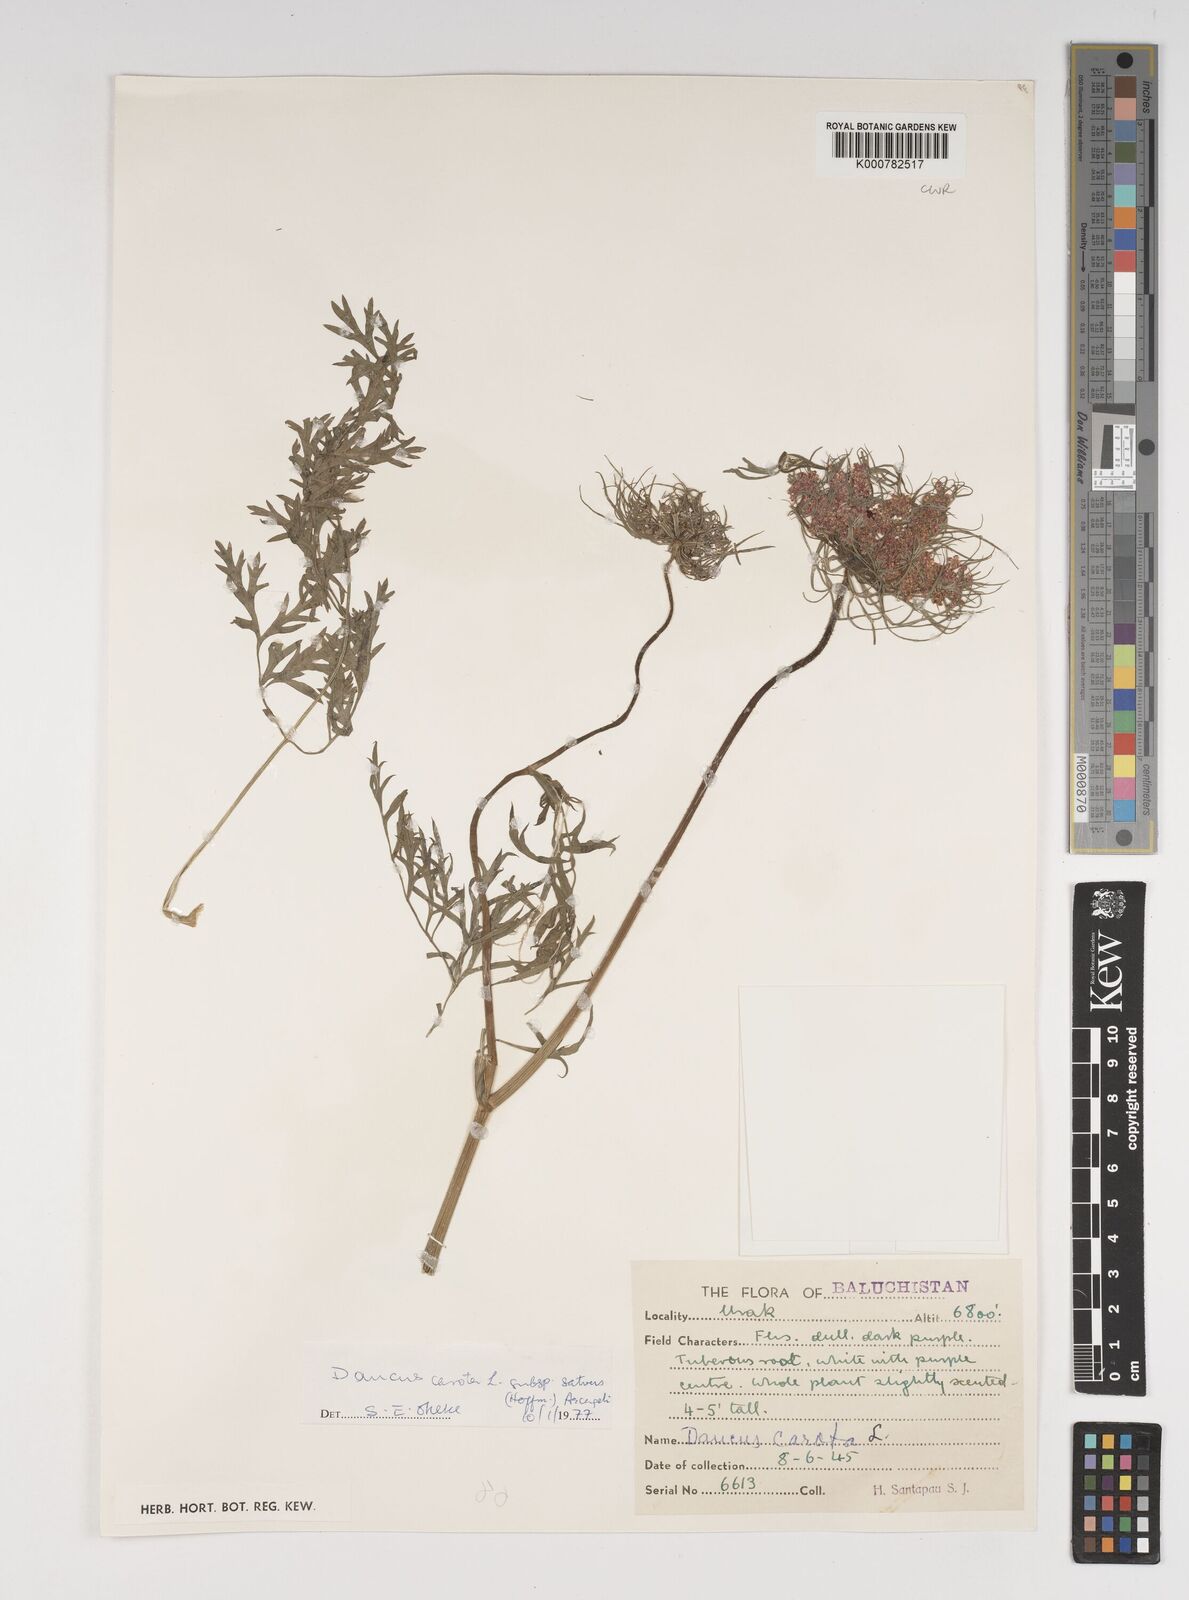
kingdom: Plantae
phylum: Tracheophyta
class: Magnoliopsida
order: Apiales
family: Apiaceae
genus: Daucus
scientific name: Daucus carota
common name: Wild carrot
